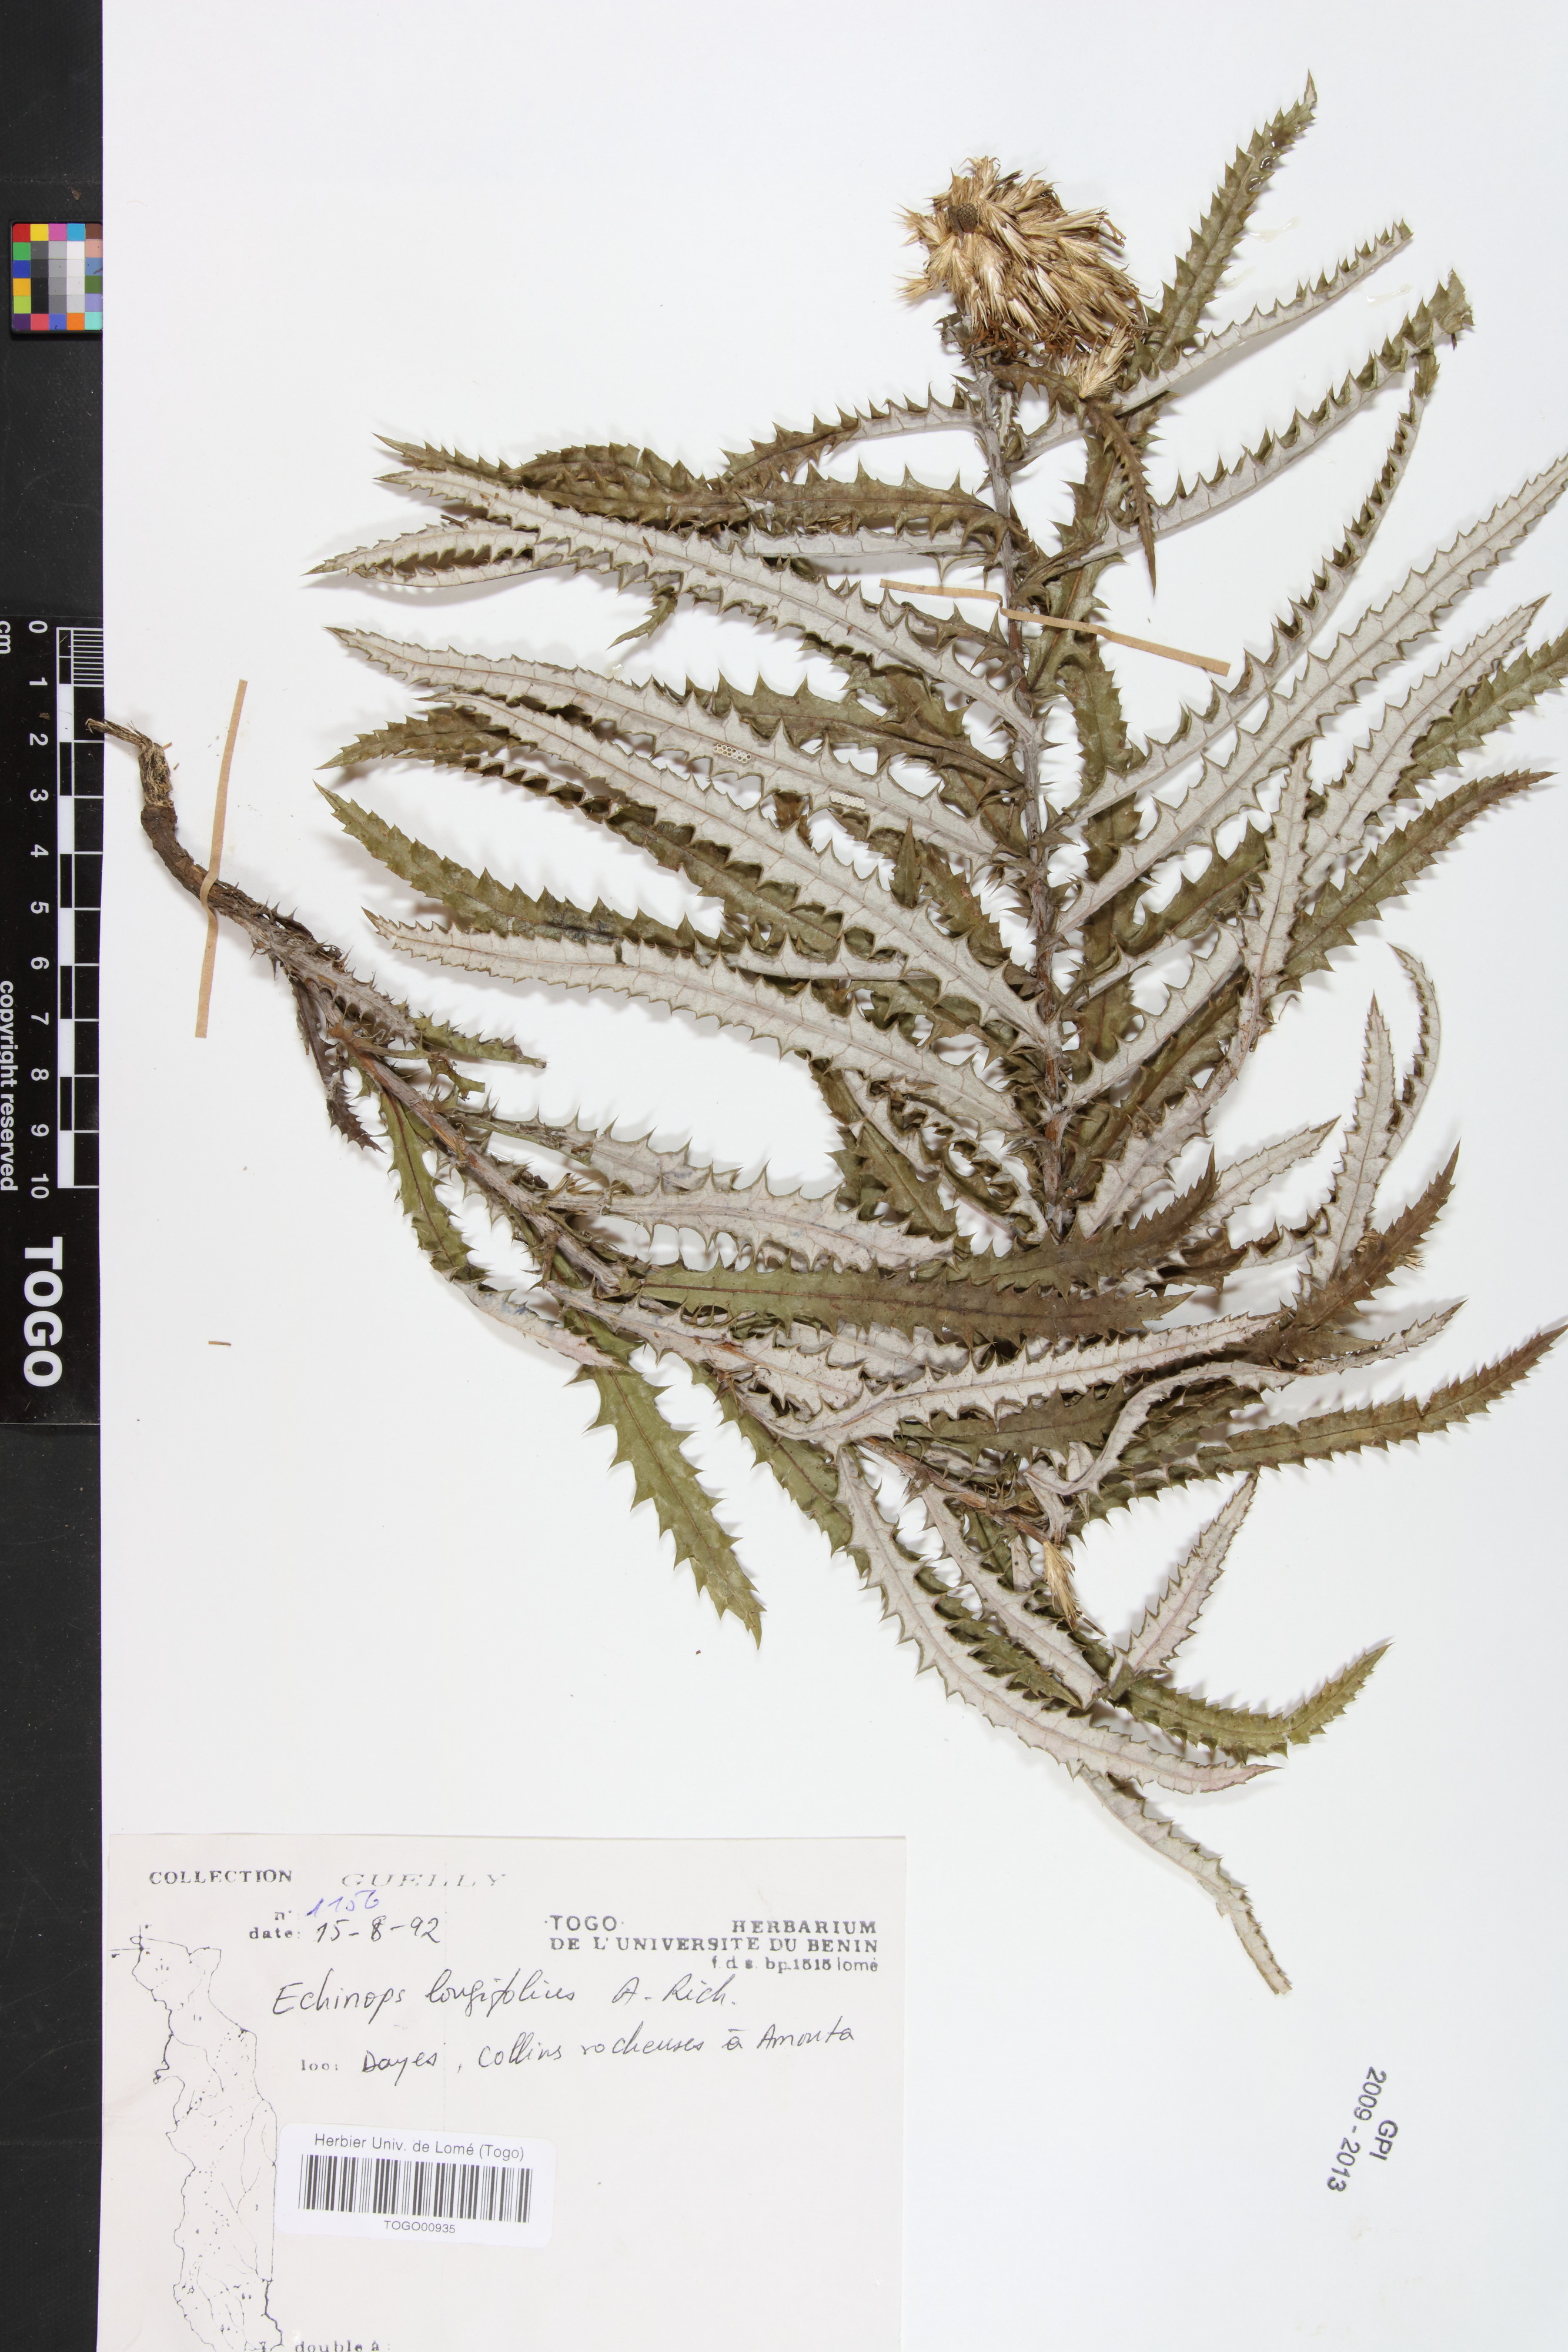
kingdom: Plantae
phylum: Tracheophyta
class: Magnoliopsida
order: Asterales
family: Asteraceae
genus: Echinops
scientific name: Echinops longifolius
